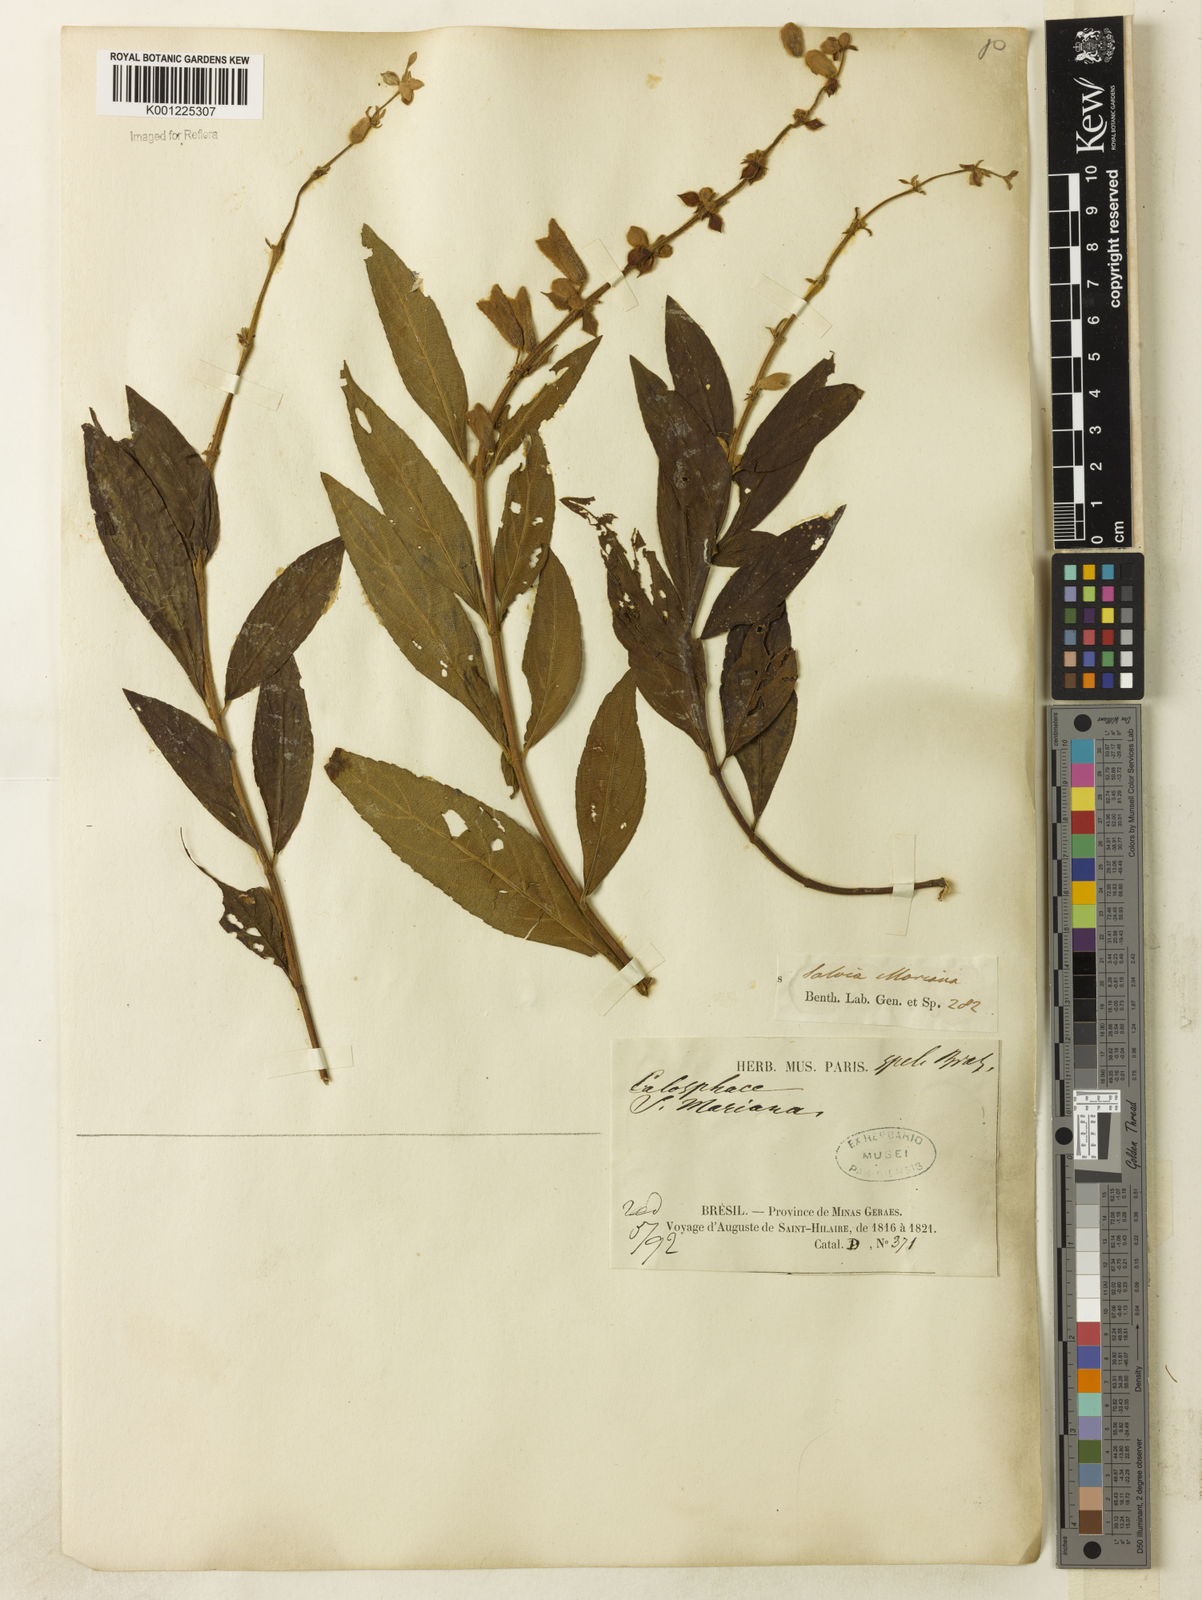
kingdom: Plantae
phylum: Tracheophyta
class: Magnoliopsida
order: Lamiales
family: Lamiaceae
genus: Salvia
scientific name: Salvia macrocalyx
